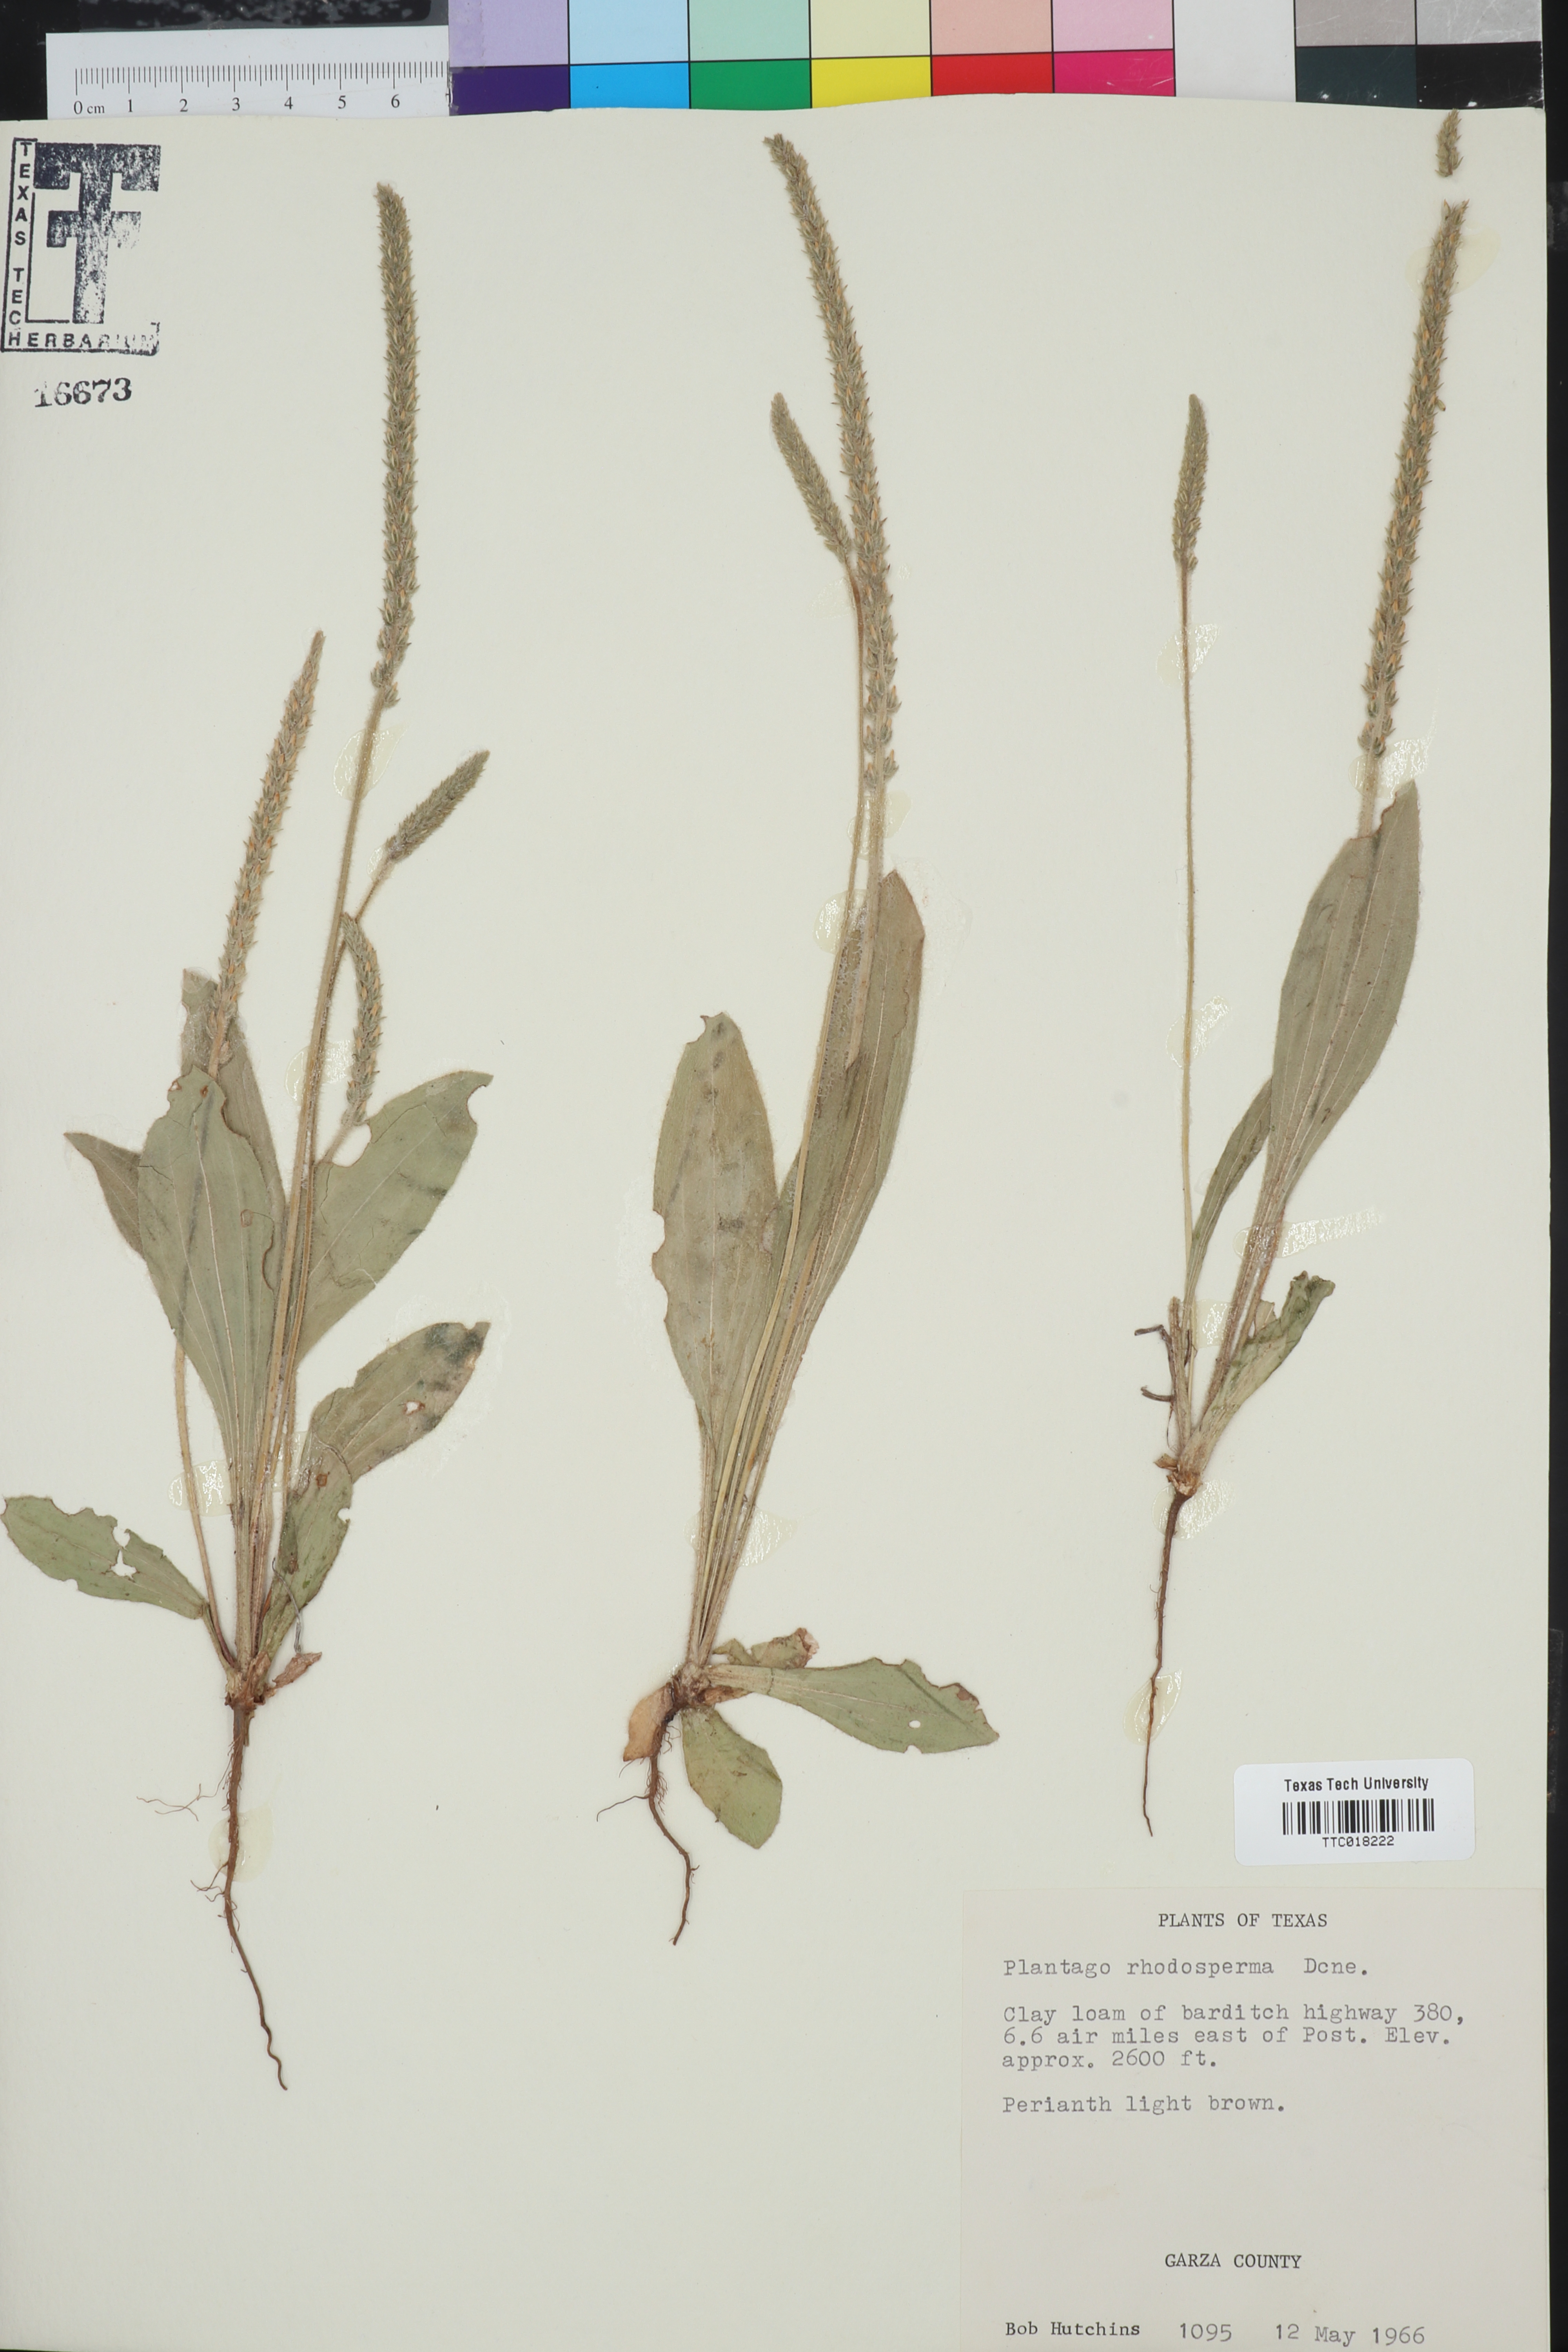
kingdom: Plantae
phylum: Tracheophyta
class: Magnoliopsida
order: Lamiales
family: Plantaginaceae
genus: Plantago
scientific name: Plantago rhodosperma
